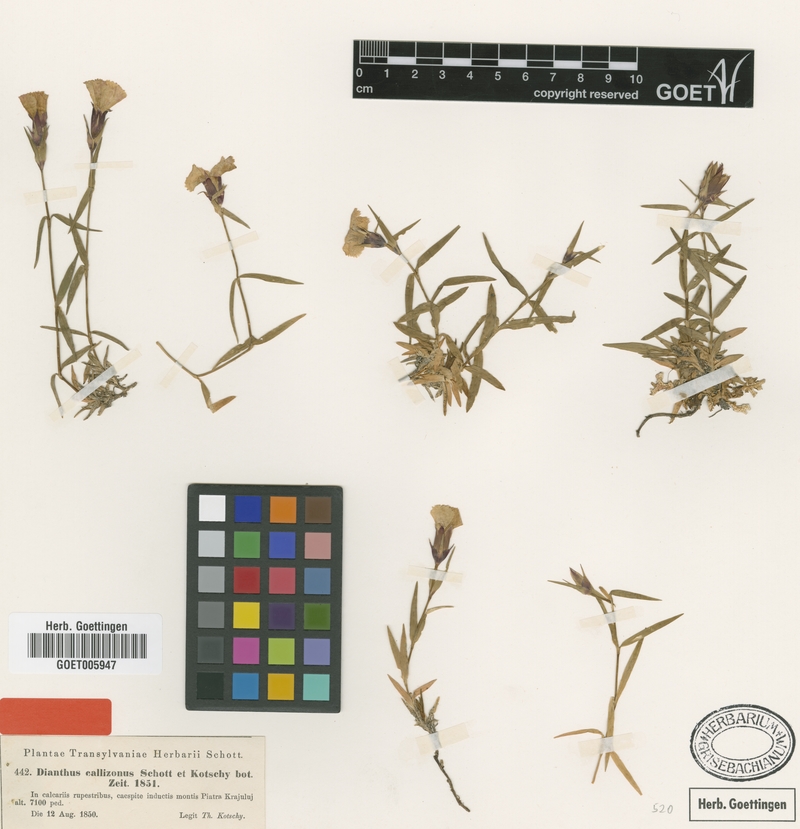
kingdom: Plantae
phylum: Tracheophyta
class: Magnoliopsida
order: Caryophyllales
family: Caryophyllaceae
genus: Dianthus
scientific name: Dianthus callizonus
